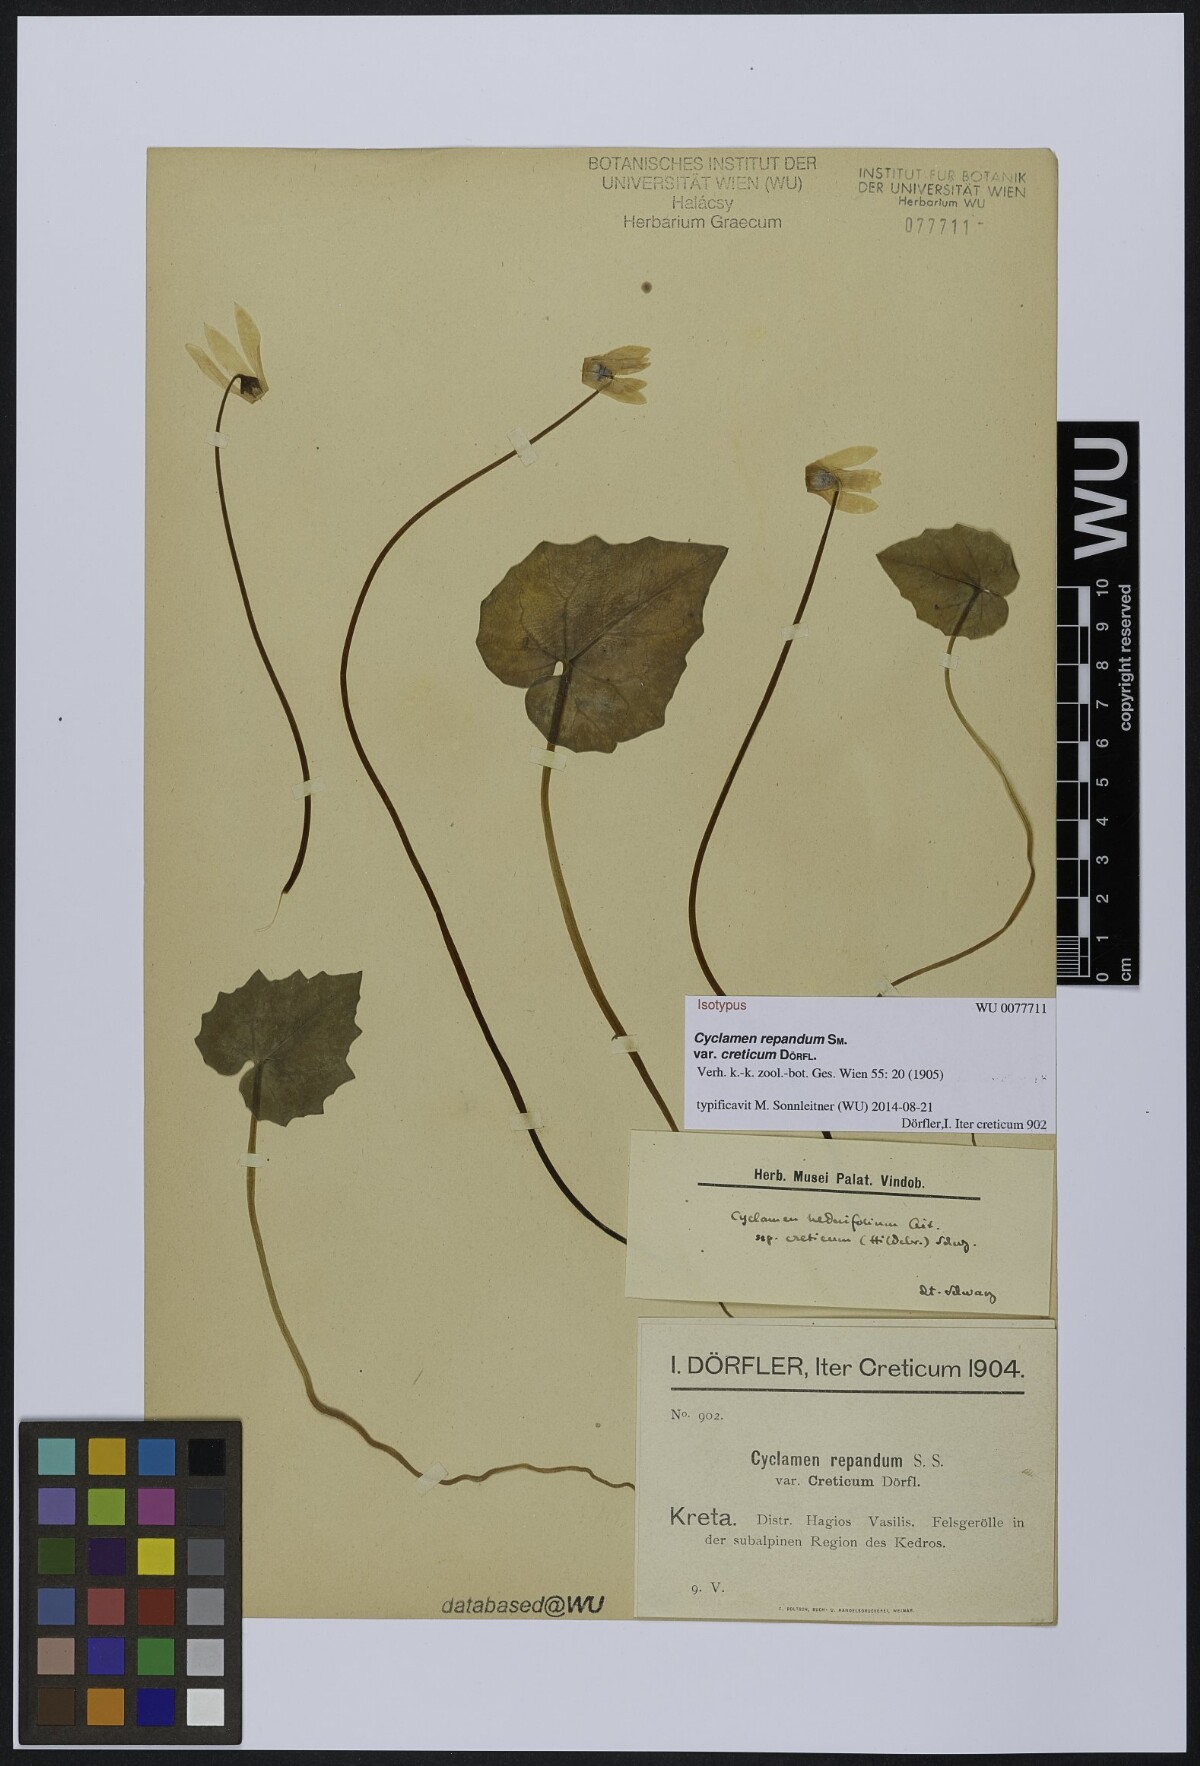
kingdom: Plantae
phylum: Tracheophyta
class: Magnoliopsida
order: Ericales
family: Primulaceae
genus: Cyclamen
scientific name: Cyclamen creticum
